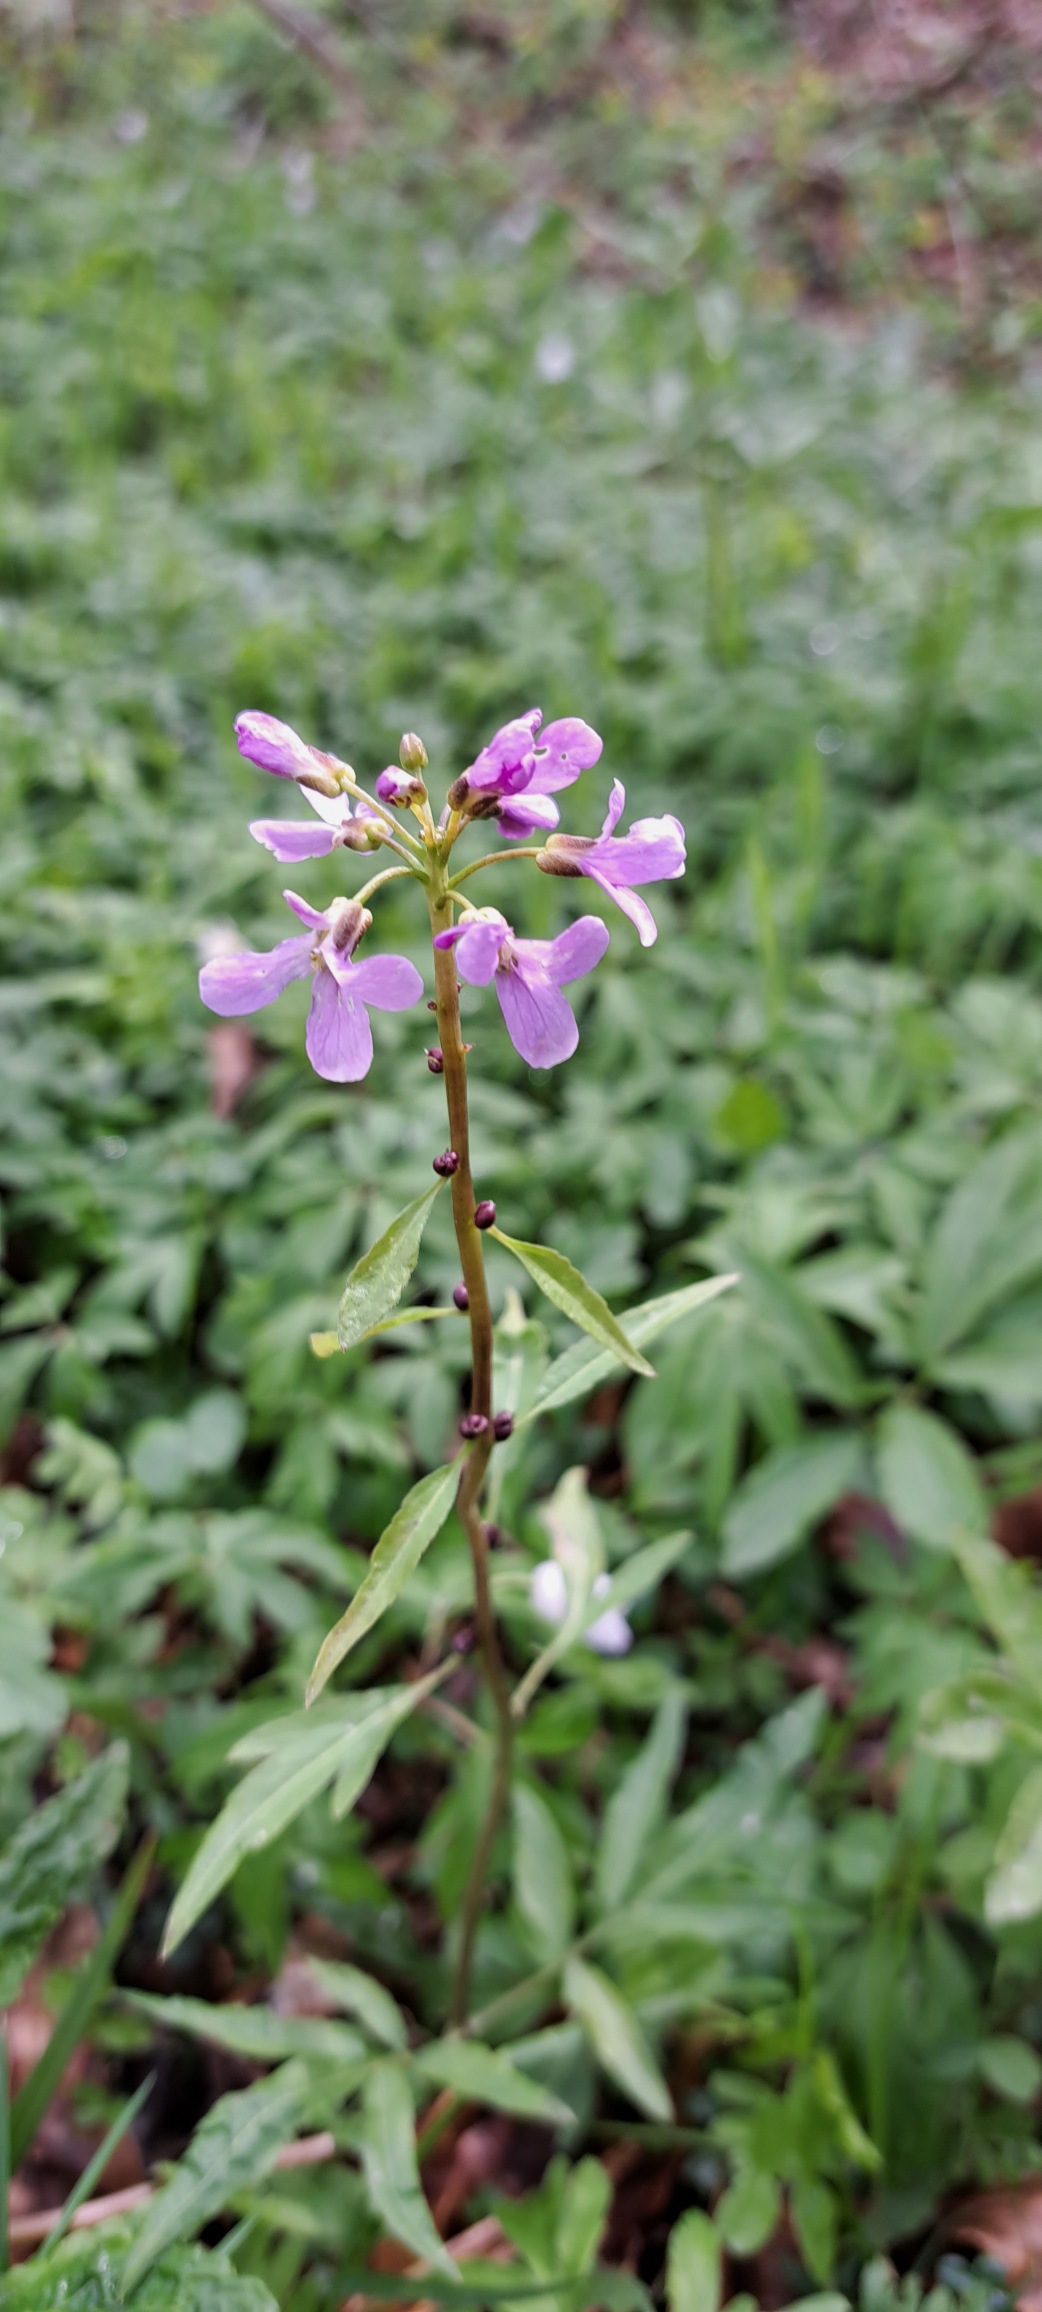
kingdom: Plantae
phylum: Tracheophyta
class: Magnoliopsida
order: Brassicales
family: Brassicaceae
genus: Cardamine
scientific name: Cardamine bulbifera
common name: Tandrod
